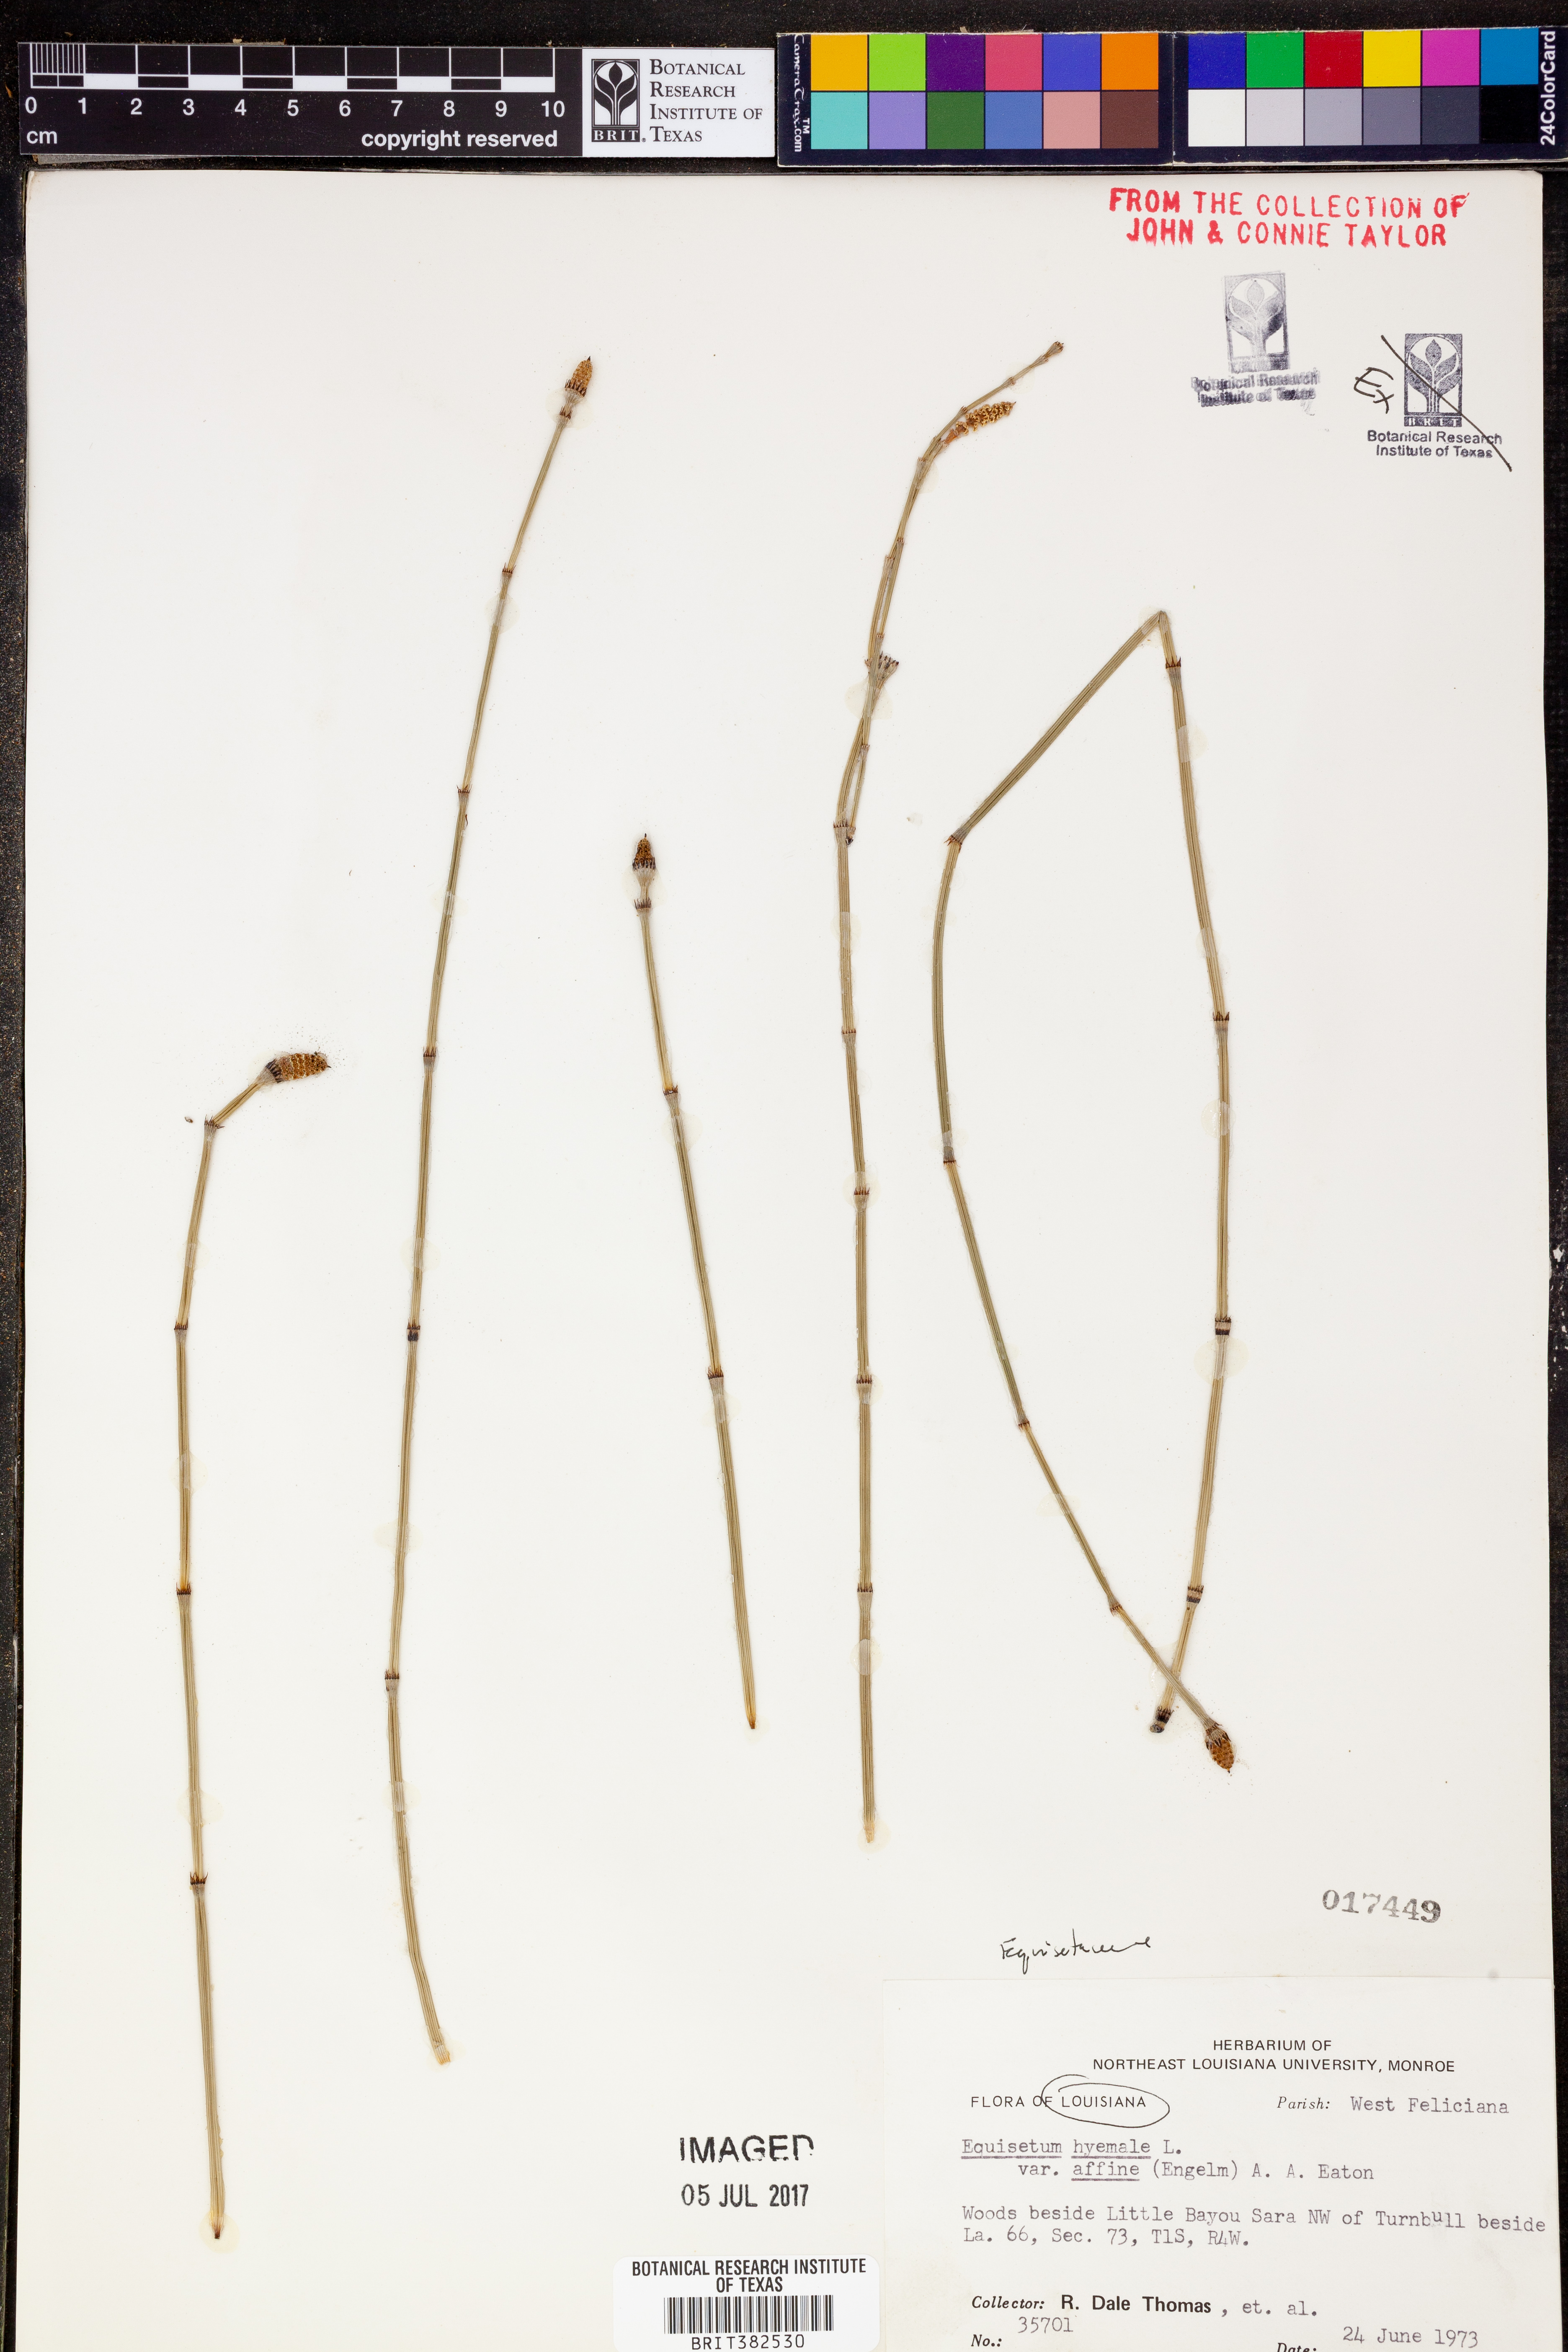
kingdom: Plantae
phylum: Tracheophyta
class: Polypodiopsida
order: Equisetales
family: Equisetaceae
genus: Equisetum
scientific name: Equisetum praealtum
